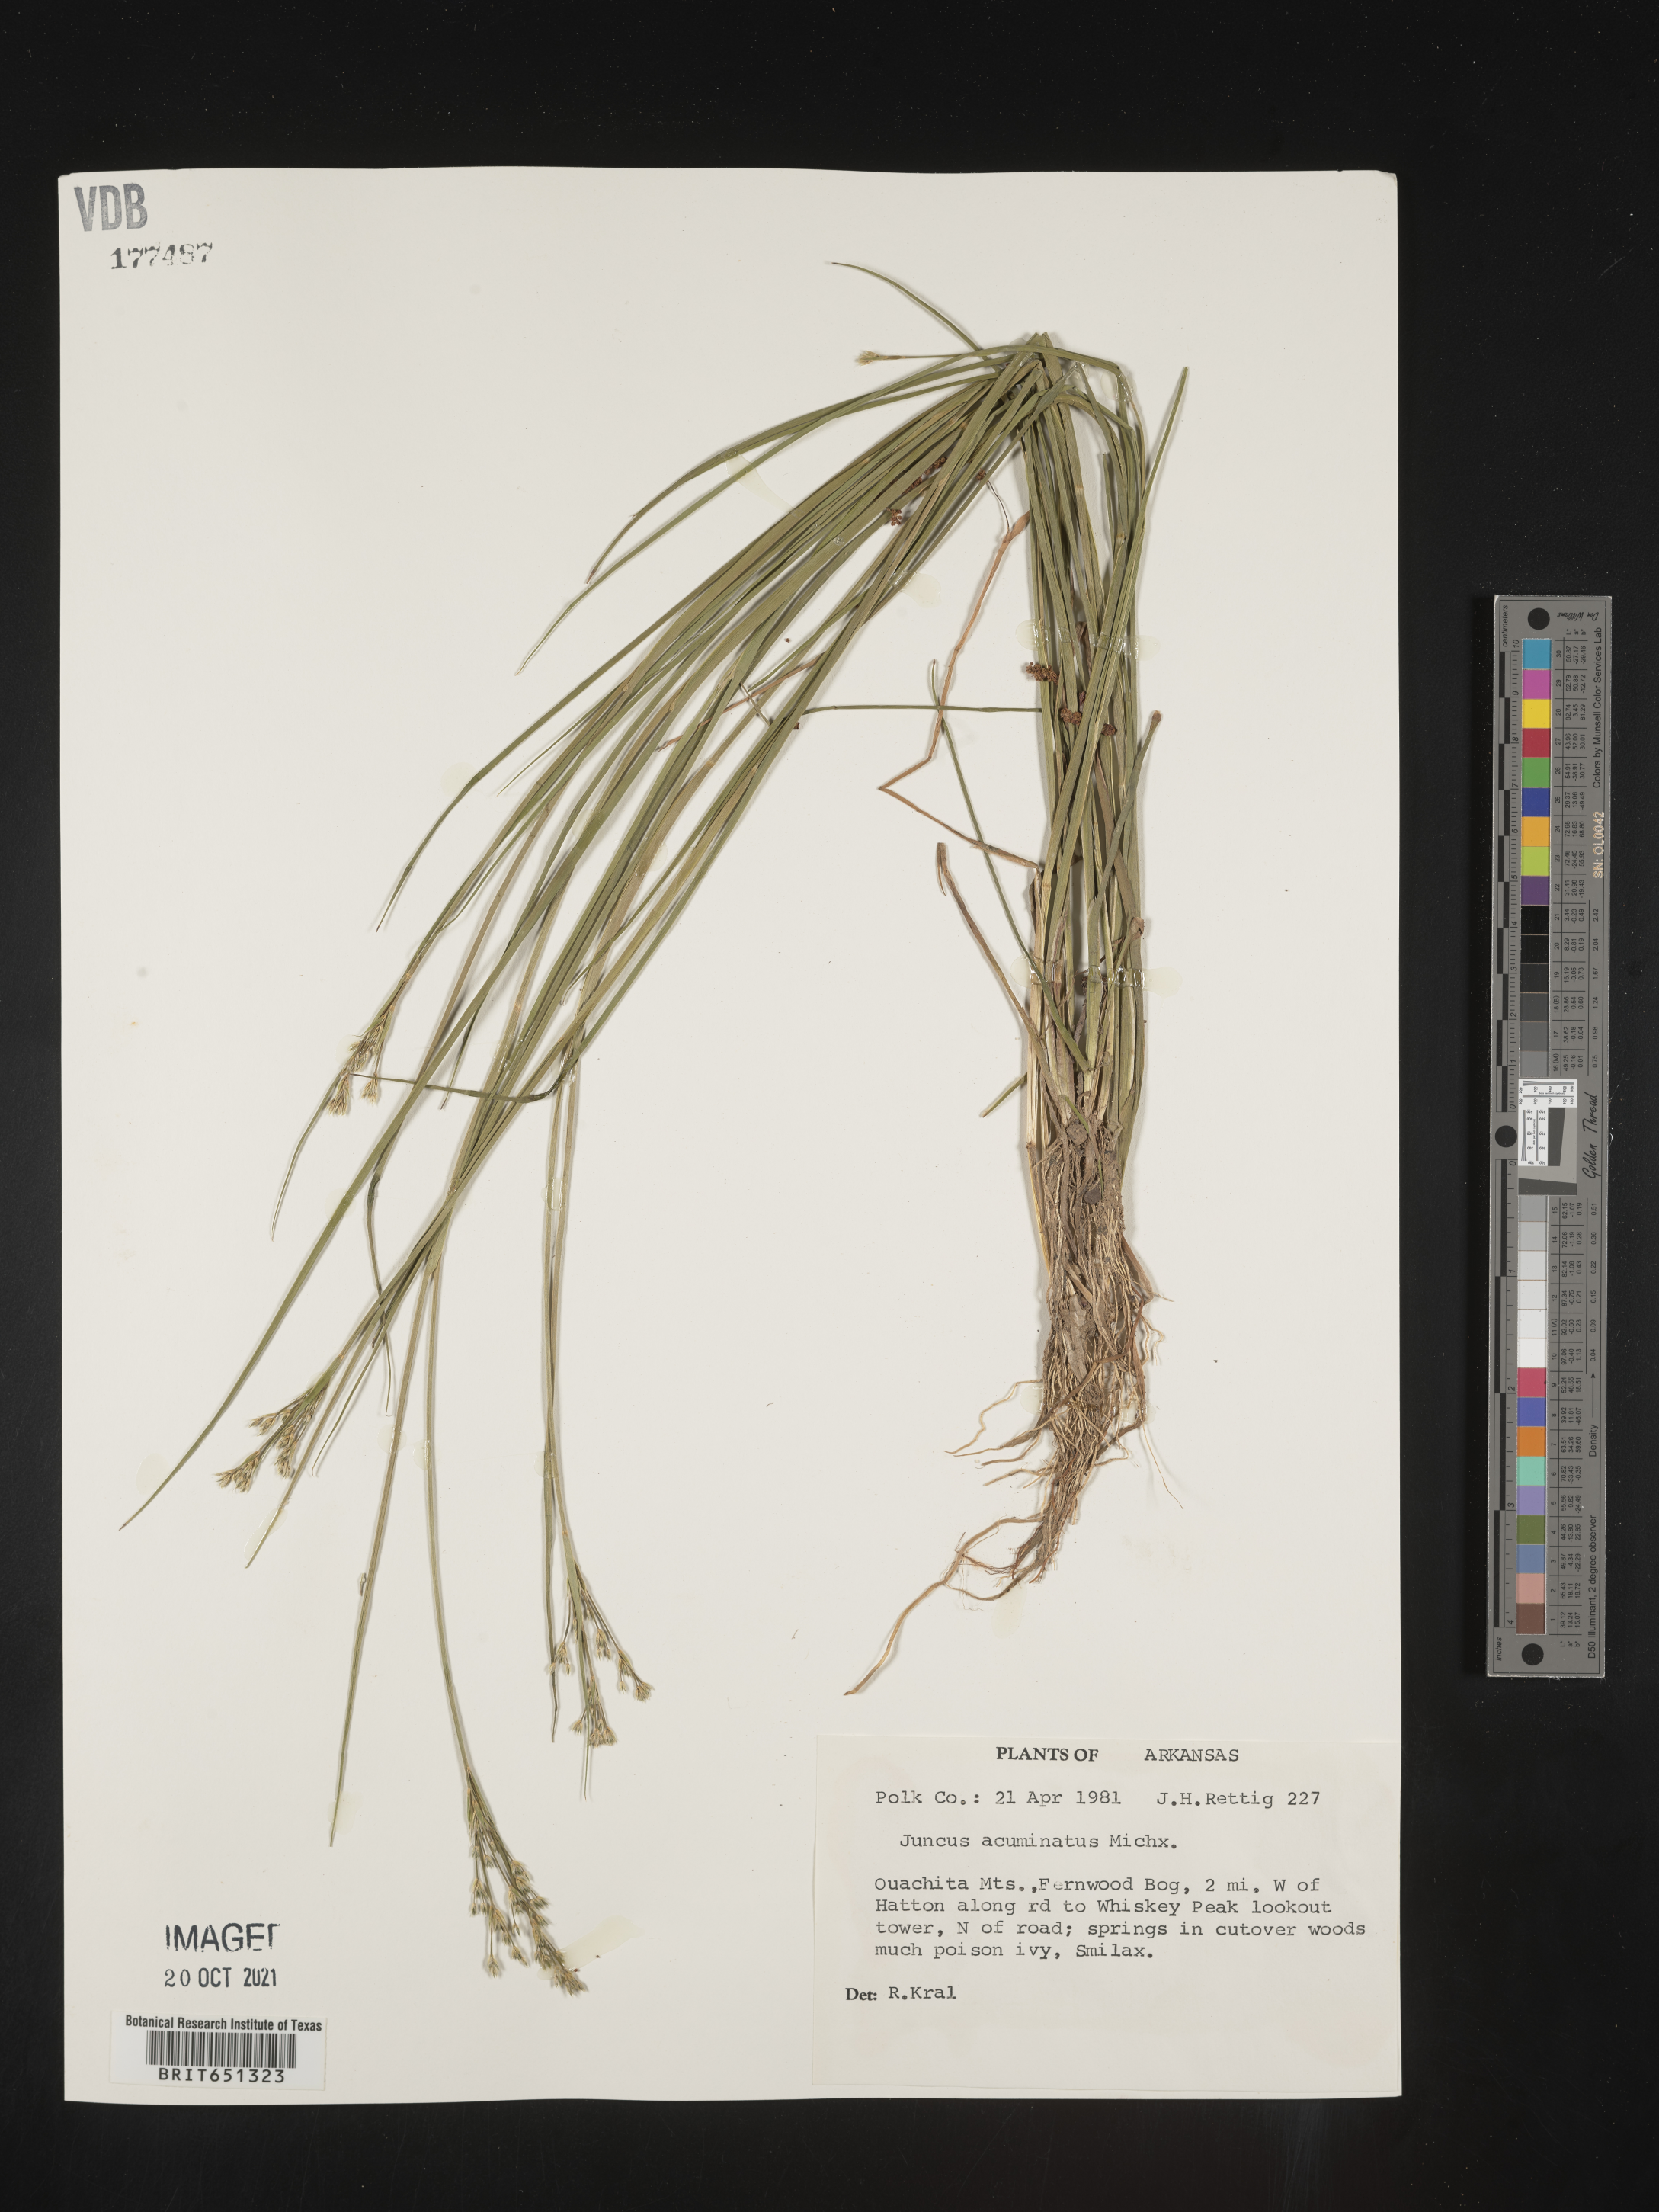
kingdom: Plantae
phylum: Tracheophyta
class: Liliopsida
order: Poales
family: Juncaceae
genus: Juncus
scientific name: Juncus acuminatus
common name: Knotty-leaved rush
